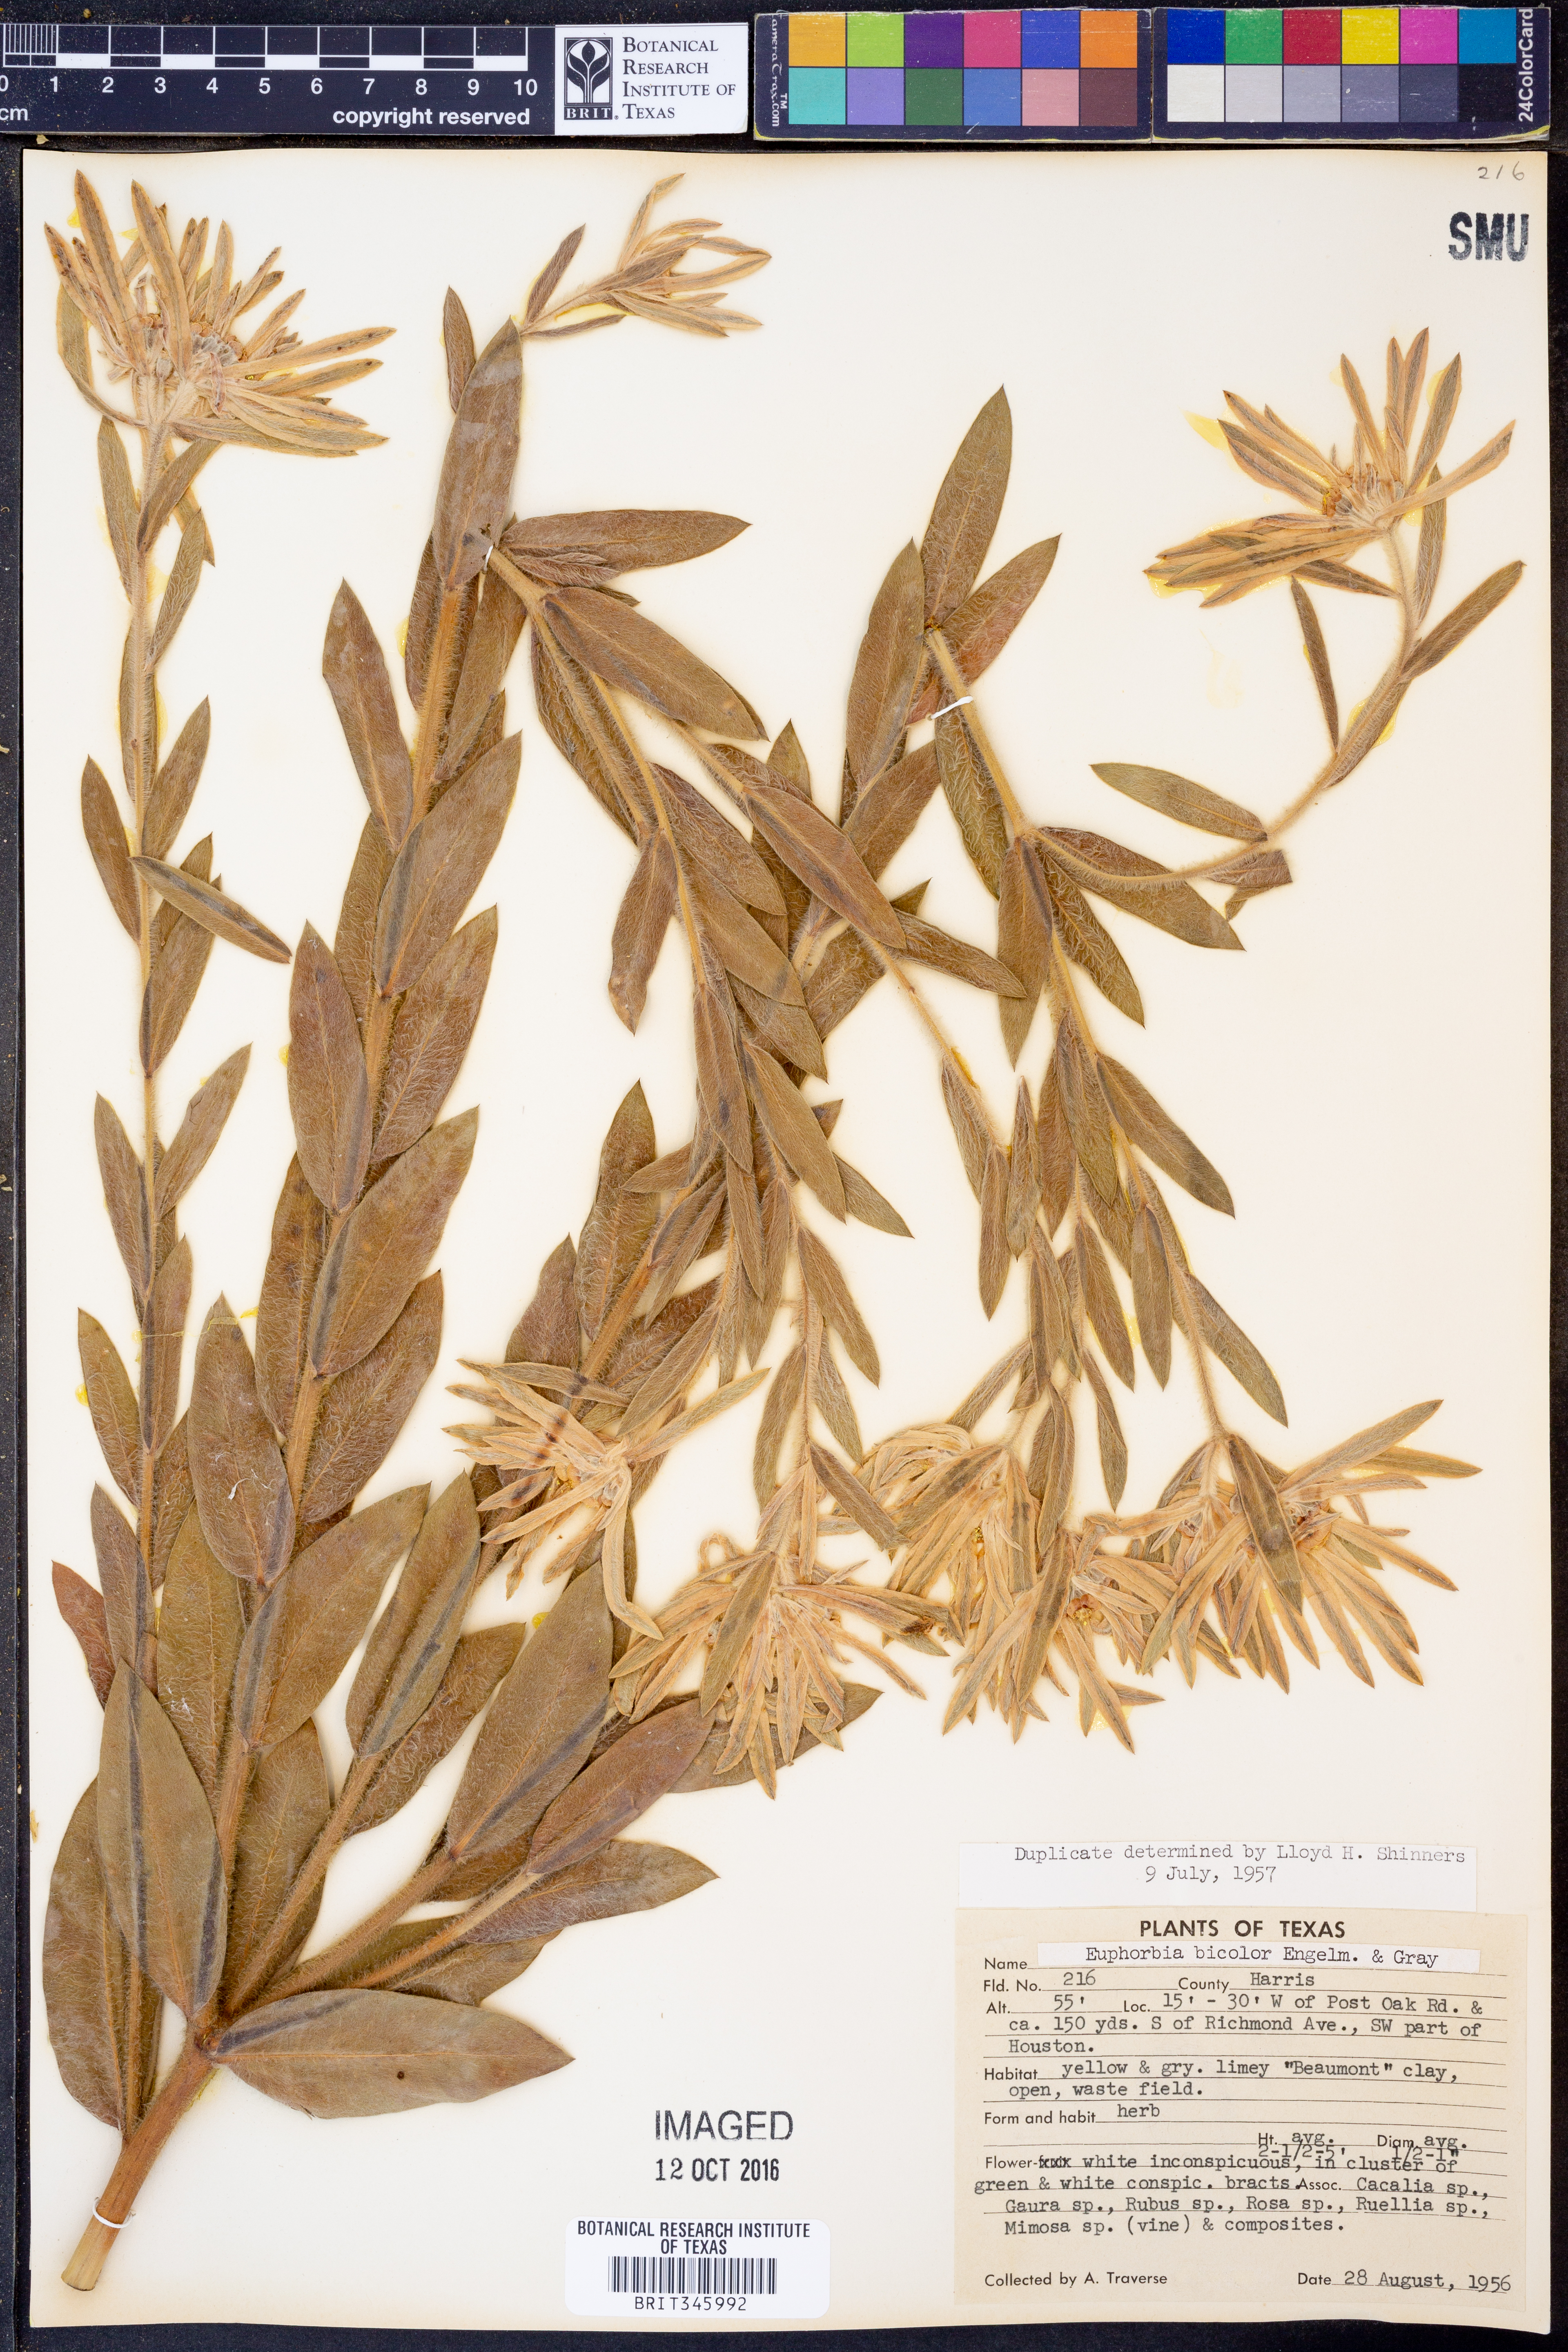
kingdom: Plantae
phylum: Tracheophyta
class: Magnoliopsida
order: Malpighiales
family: Euphorbiaceae
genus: Euphorbia
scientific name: Euphorbia bicolor
